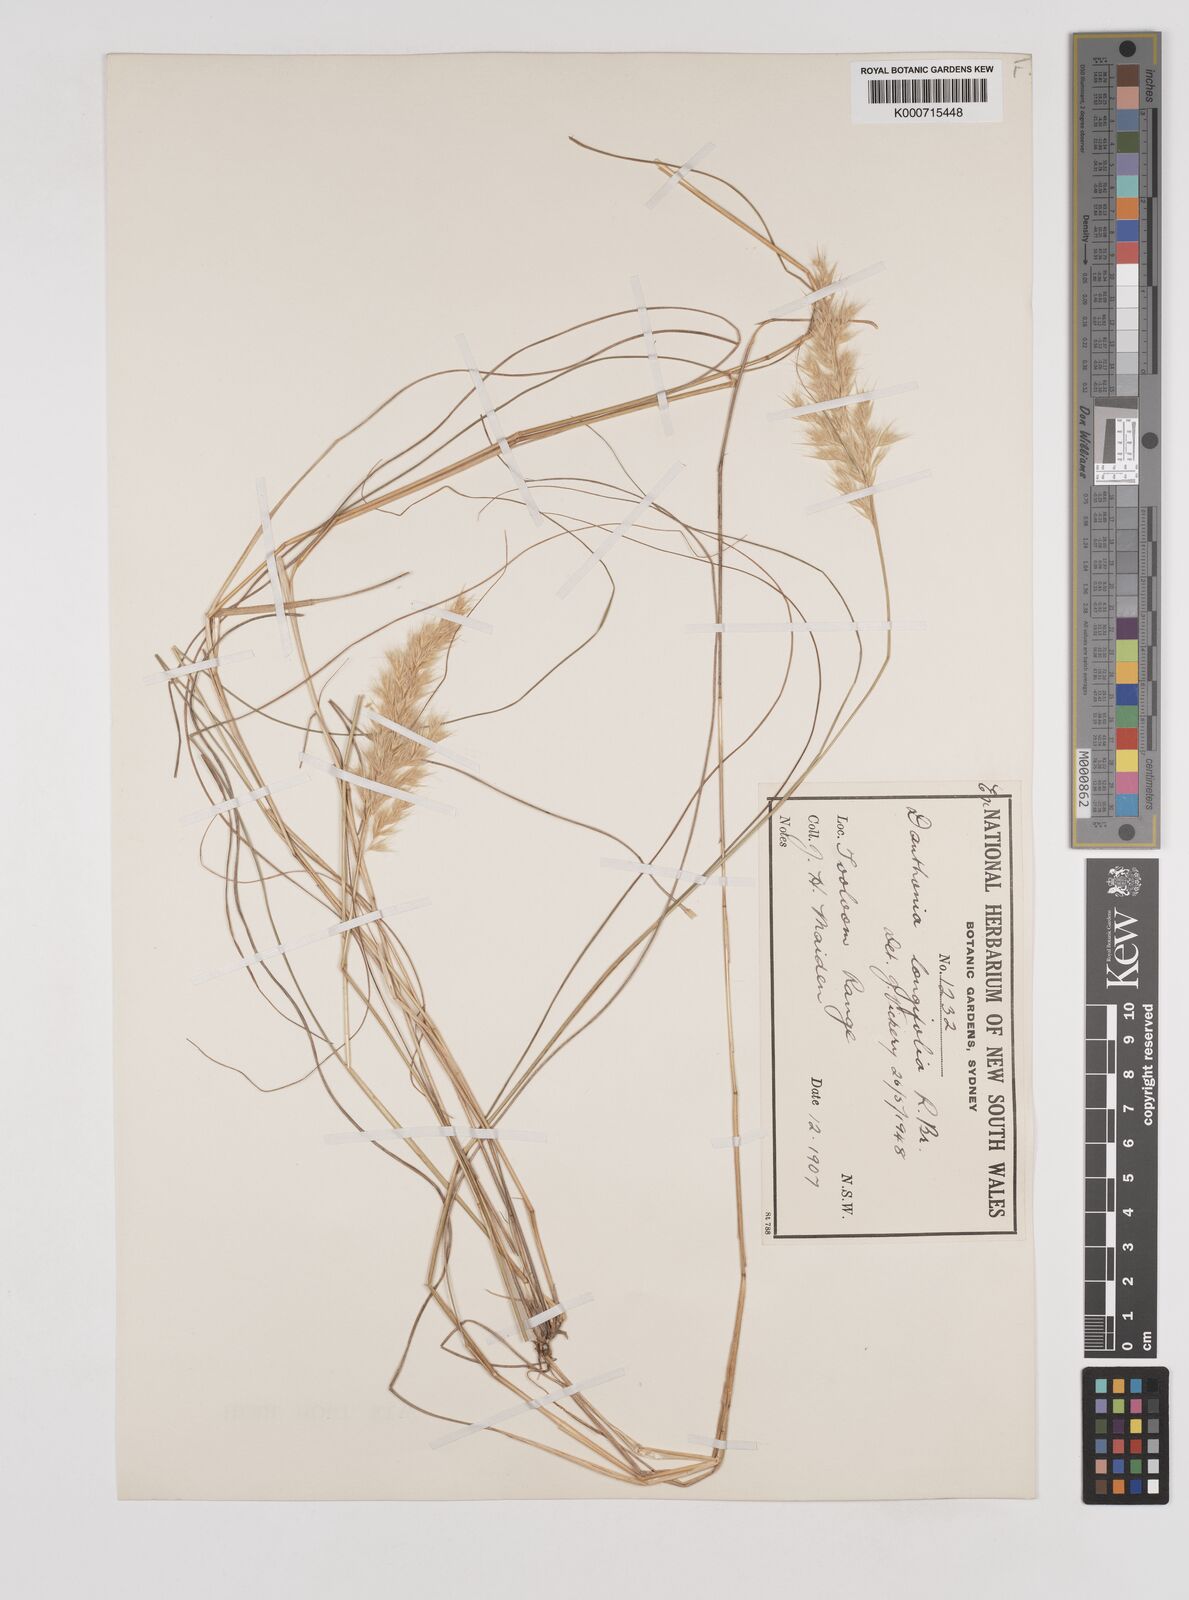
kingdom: Plantae
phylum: Tracheophyta
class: Liliopsida
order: Poales
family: Poaceae
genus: Rytidosperma
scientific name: Rytidosperma longifolium
